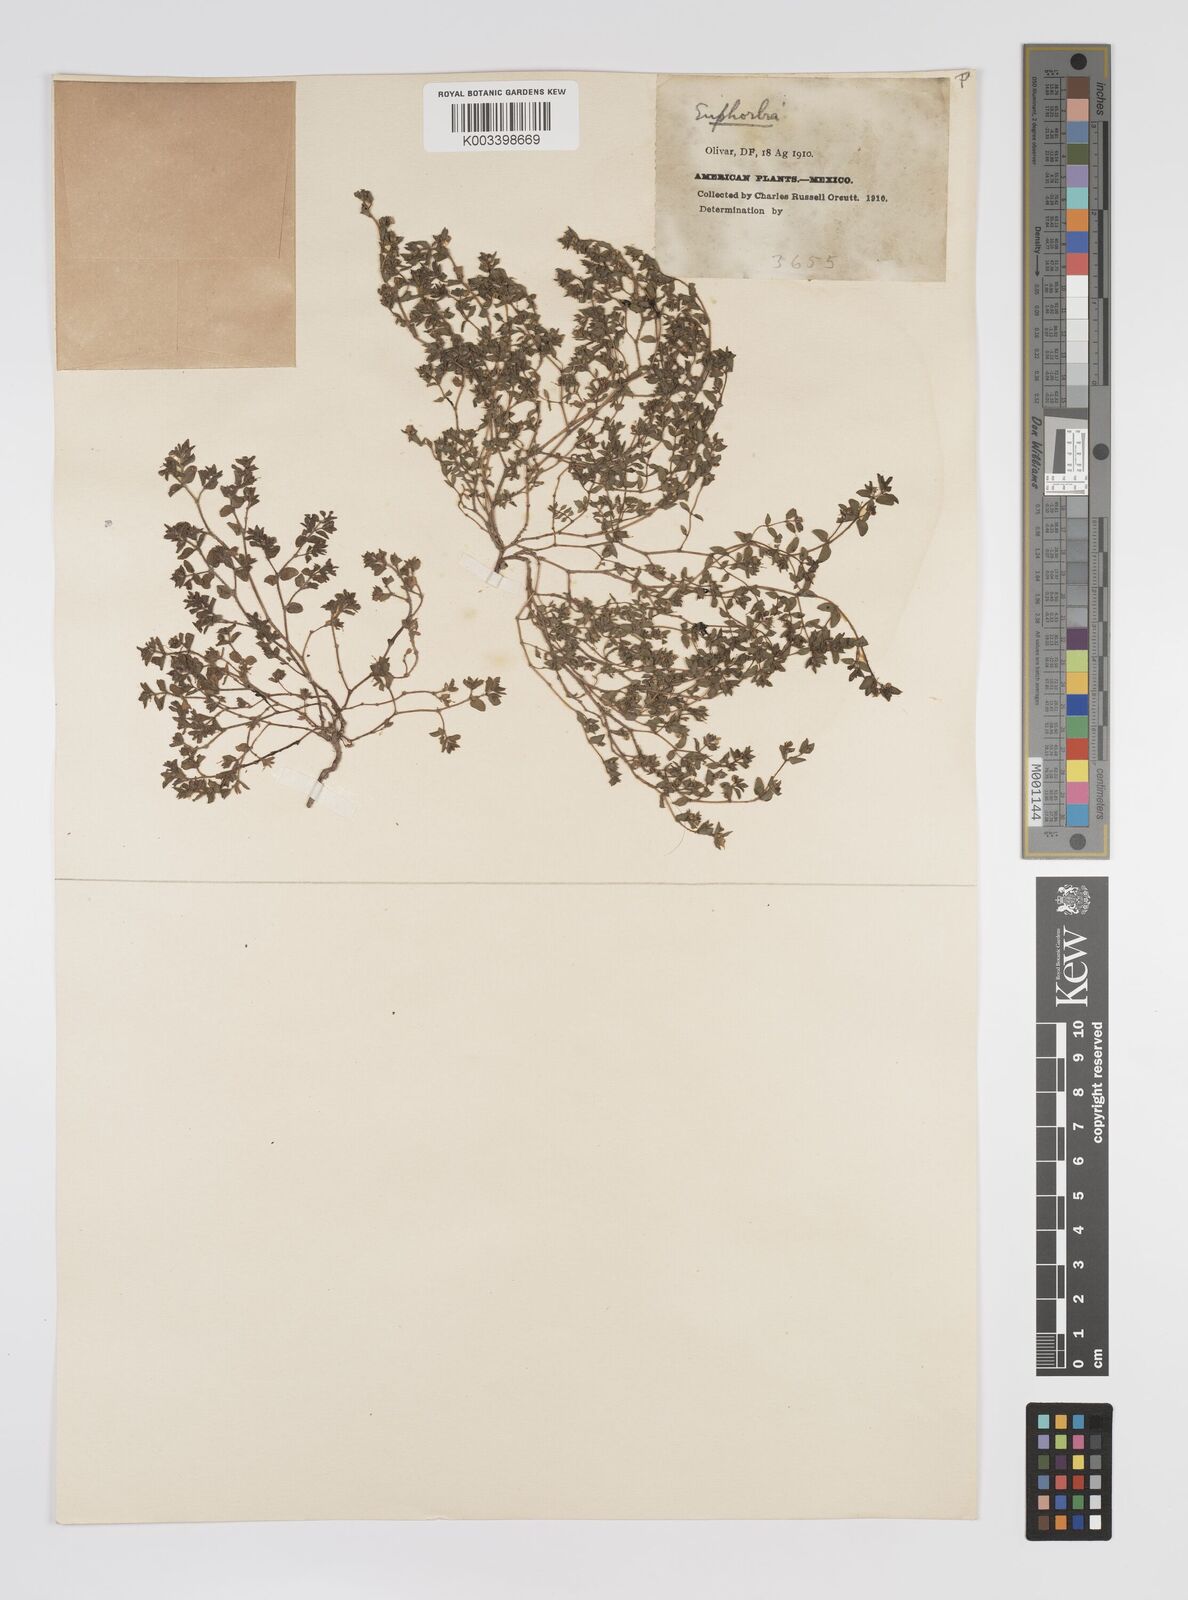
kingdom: Plantae
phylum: Tracheophyta
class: Magnoliopsida
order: Malpighiales
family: Euphorbiaceae
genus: Euphorbia
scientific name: Euphorbia
